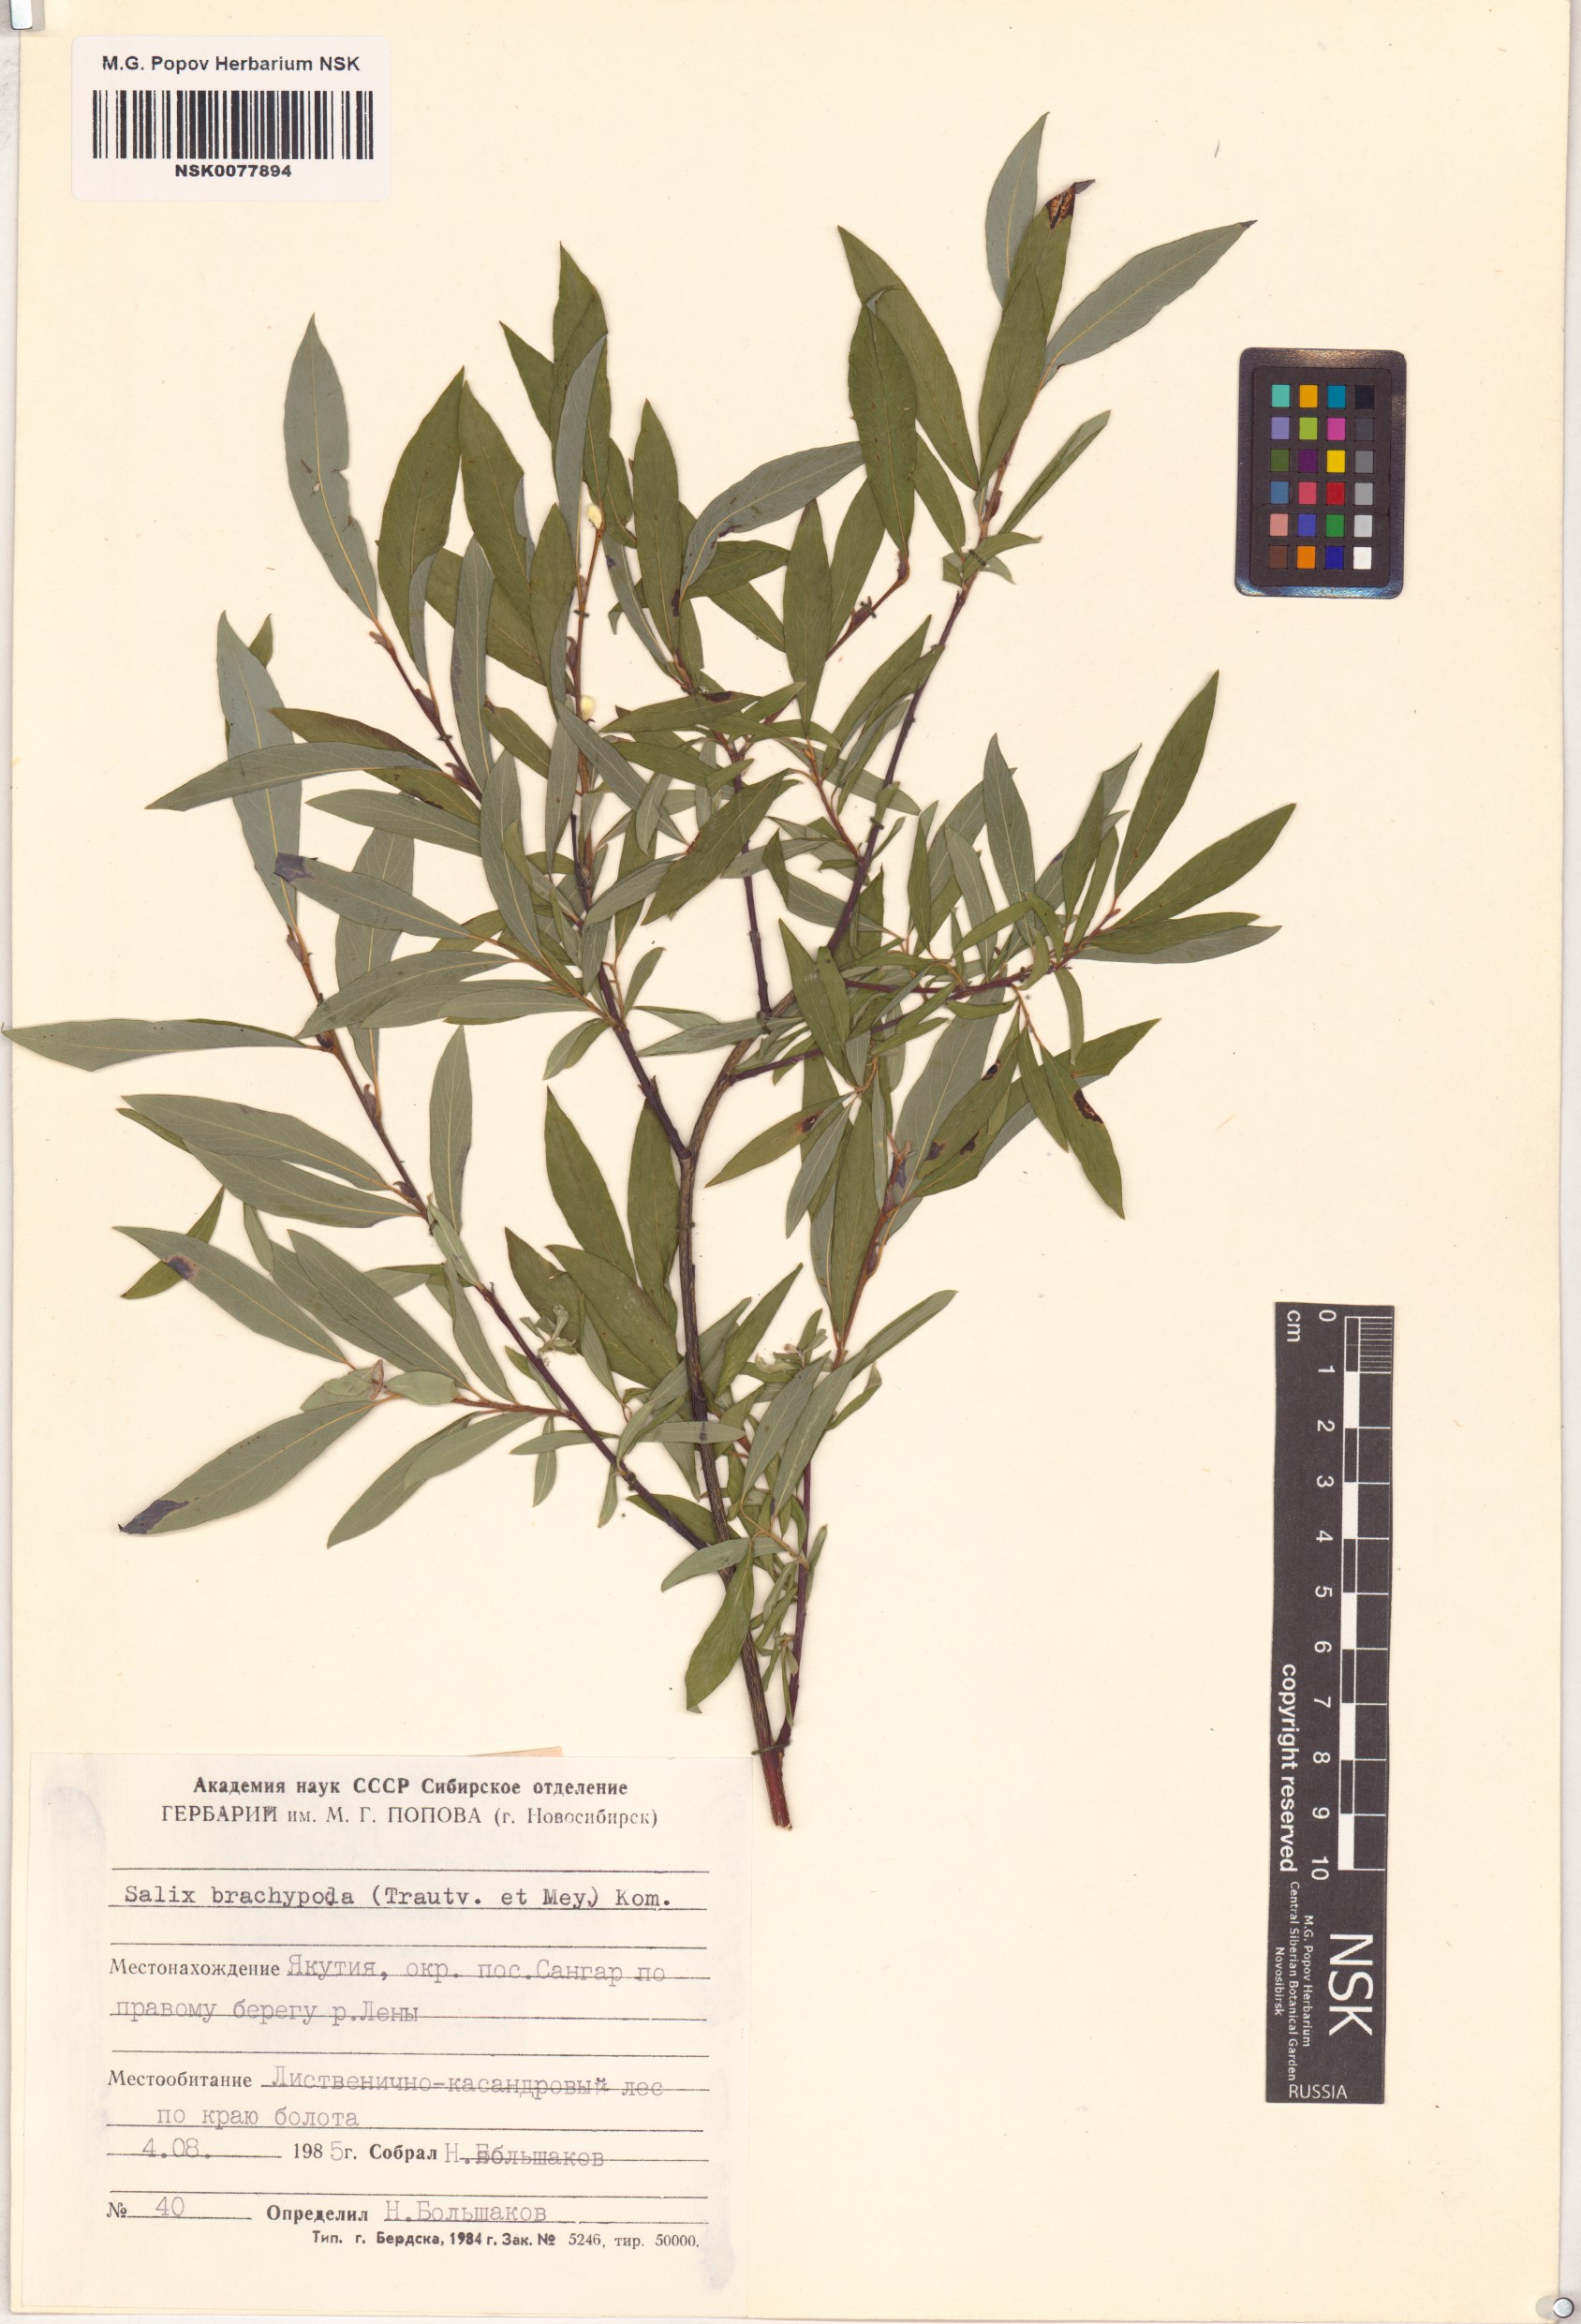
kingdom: Plantae
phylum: Tracheophyta
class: Magnoliopsida
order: Malpighiales
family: Salicaceae
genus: Salix
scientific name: Salix brachypoda
